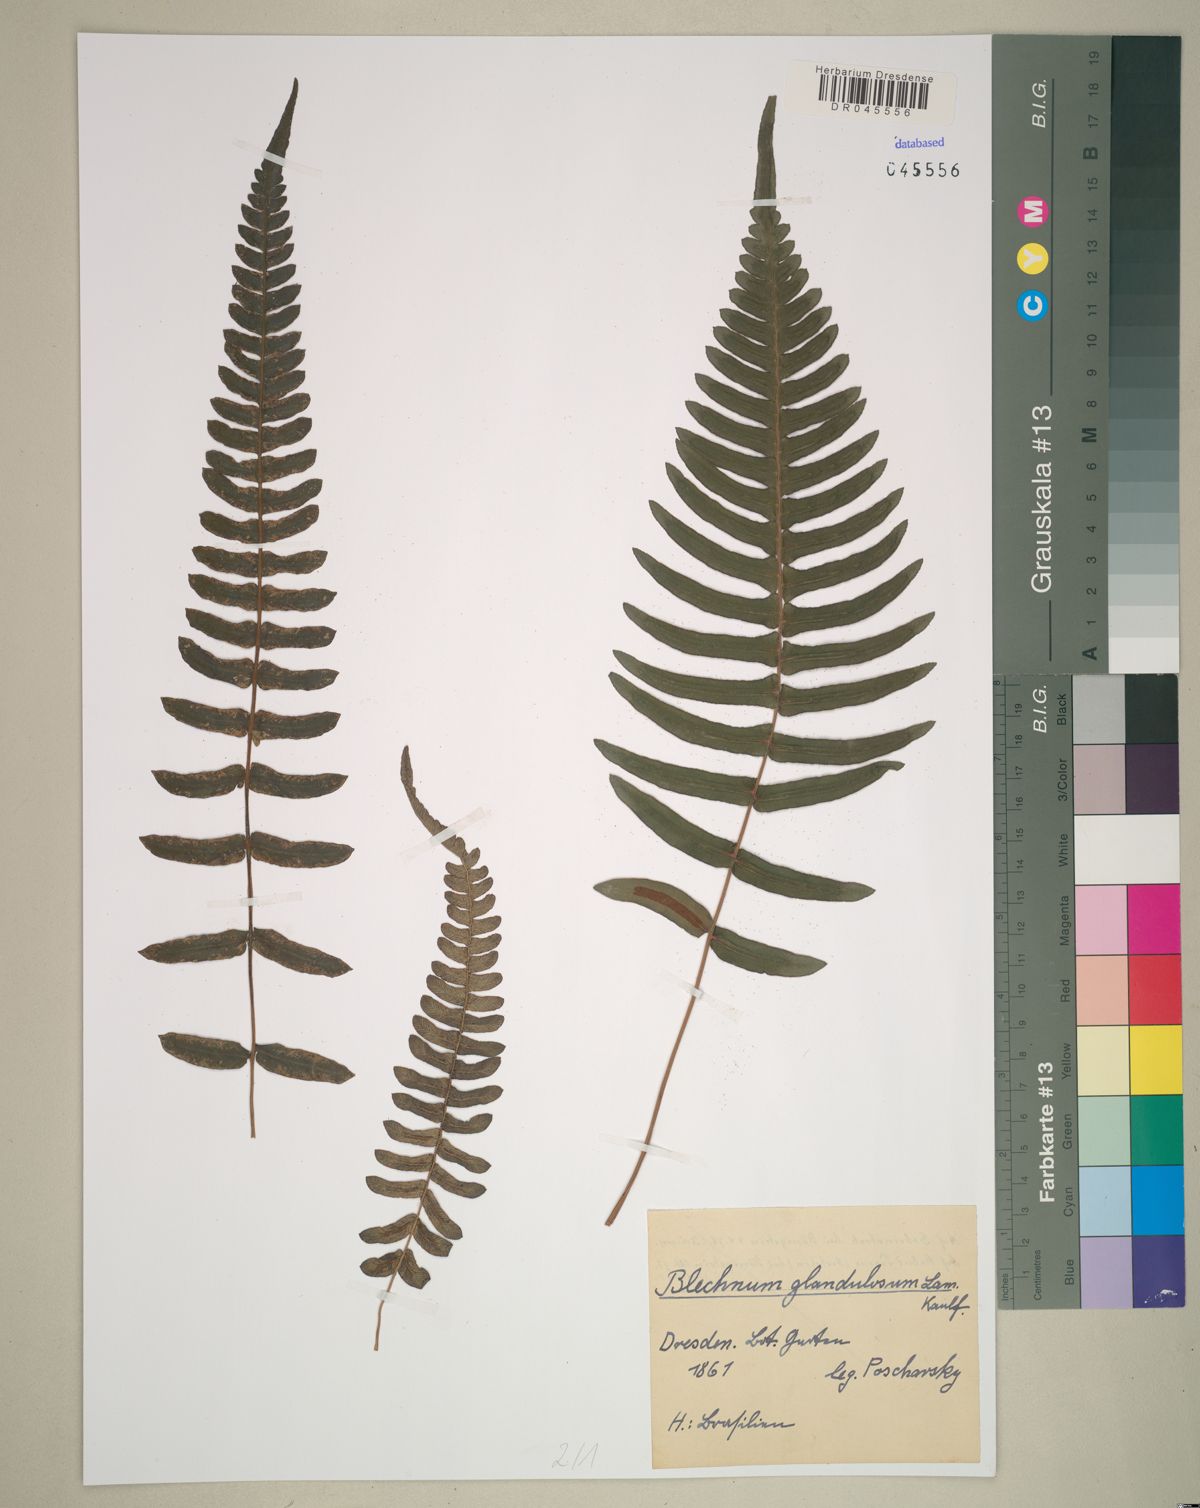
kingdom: Plantae
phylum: Tracheophyta
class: Polypodiopsida
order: Polypodiales
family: Blechnaceae
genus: Blechnum
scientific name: Blechnum appendiculatum
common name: Palm fern
